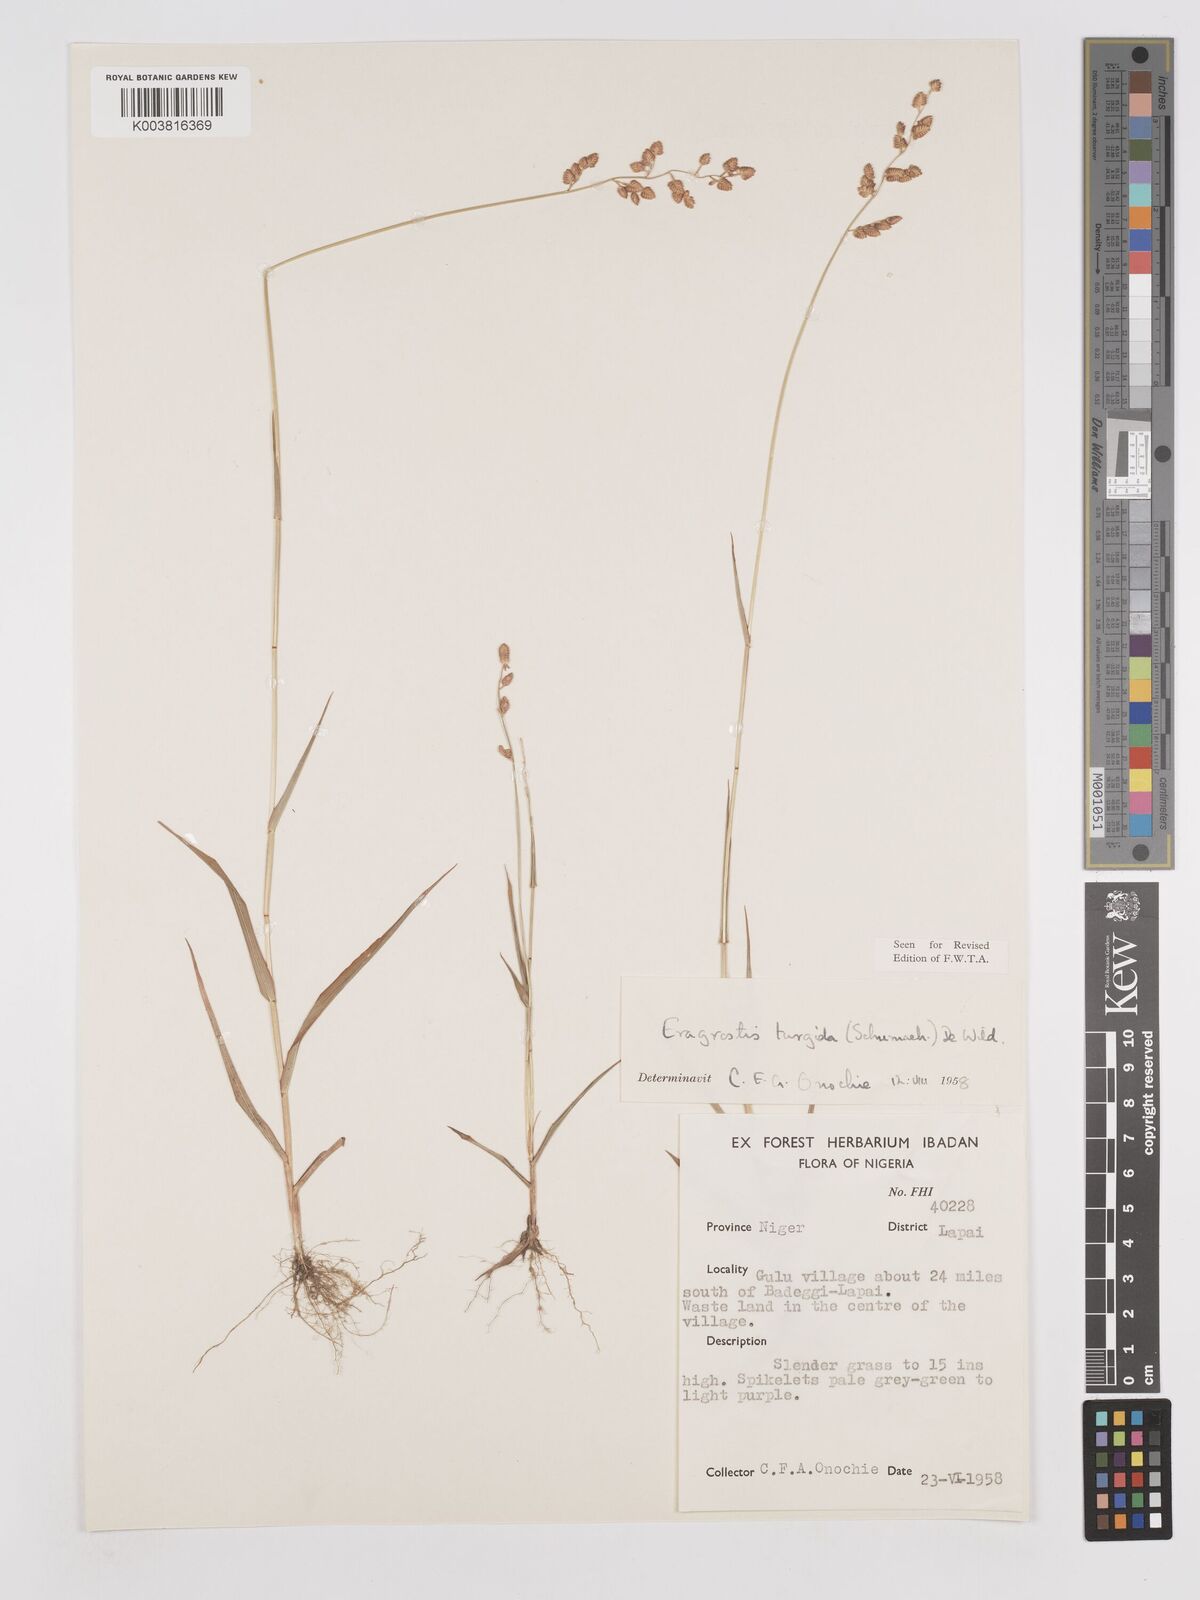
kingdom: Plantae
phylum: Tracheophyta
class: Liliopsida
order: Poales
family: Poaceae
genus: Eragrostis
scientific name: Eragrostis turgida
